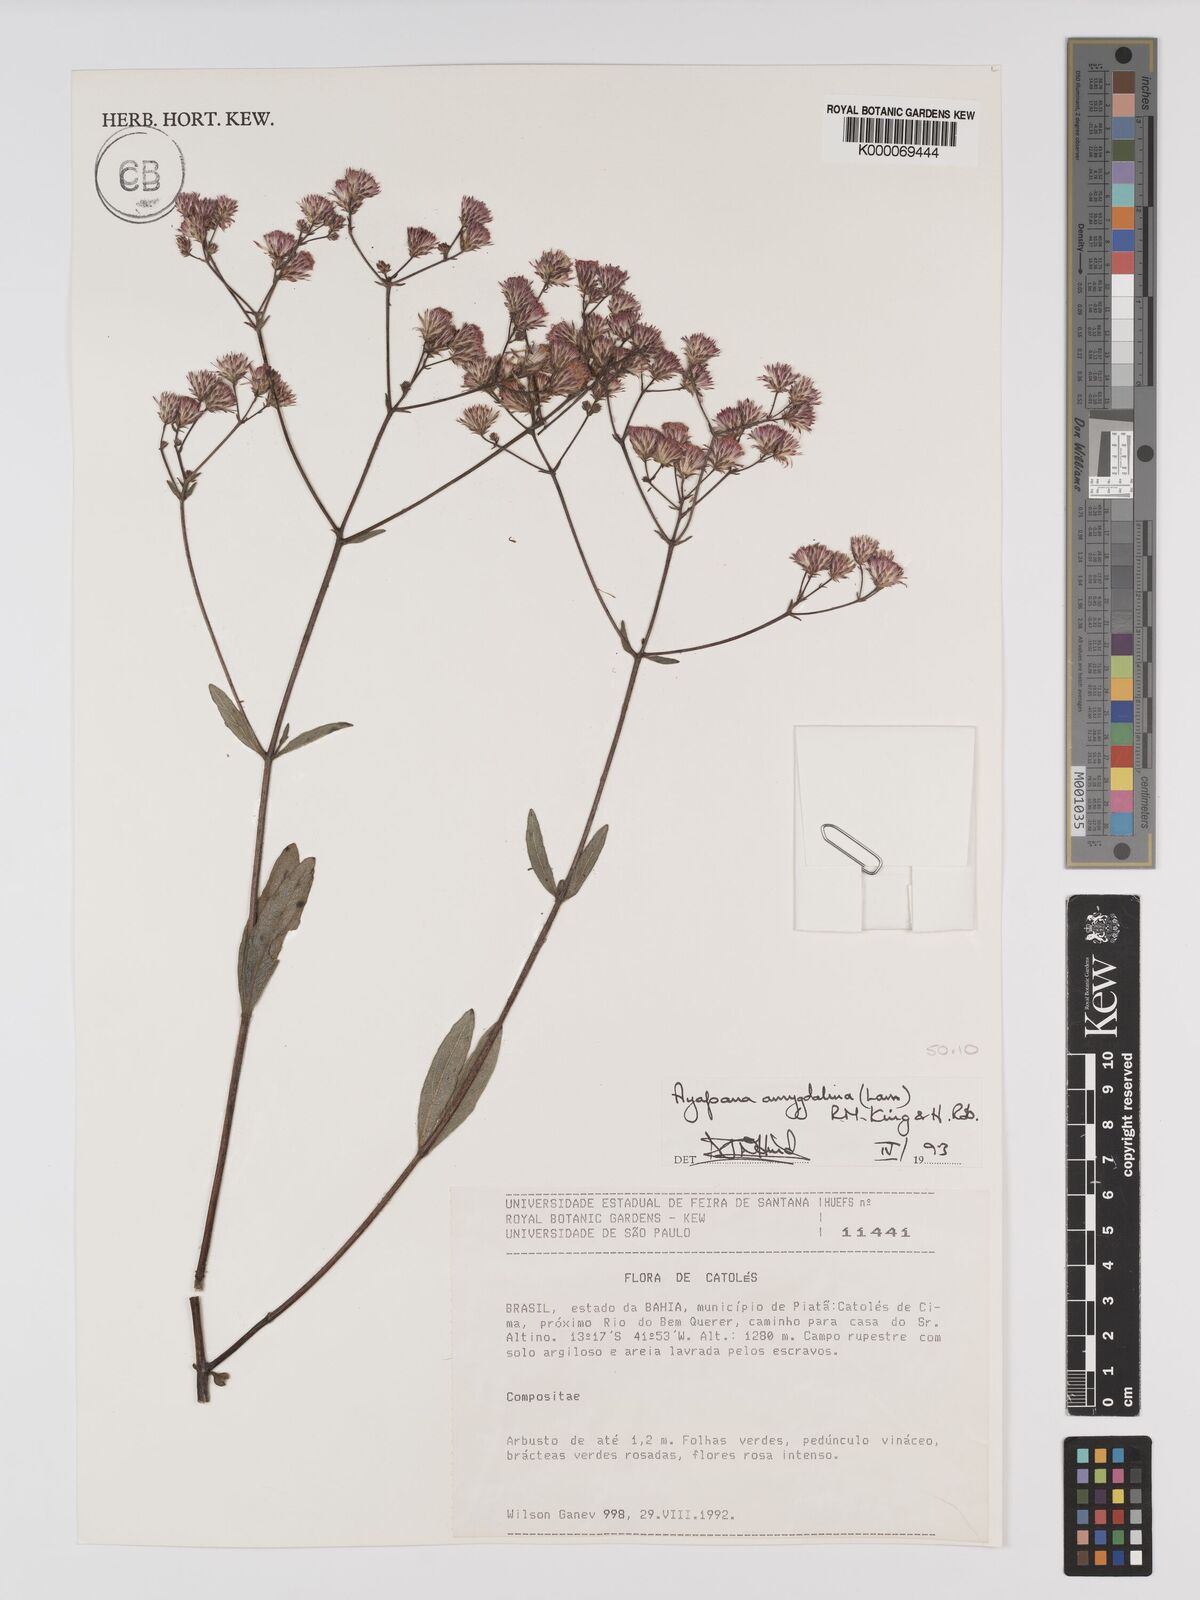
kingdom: Plantae
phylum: Tracheophyta
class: Magnoliopsida
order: Asterales
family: Asteraceae
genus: Ayapana
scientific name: Ayapana amygdalina
